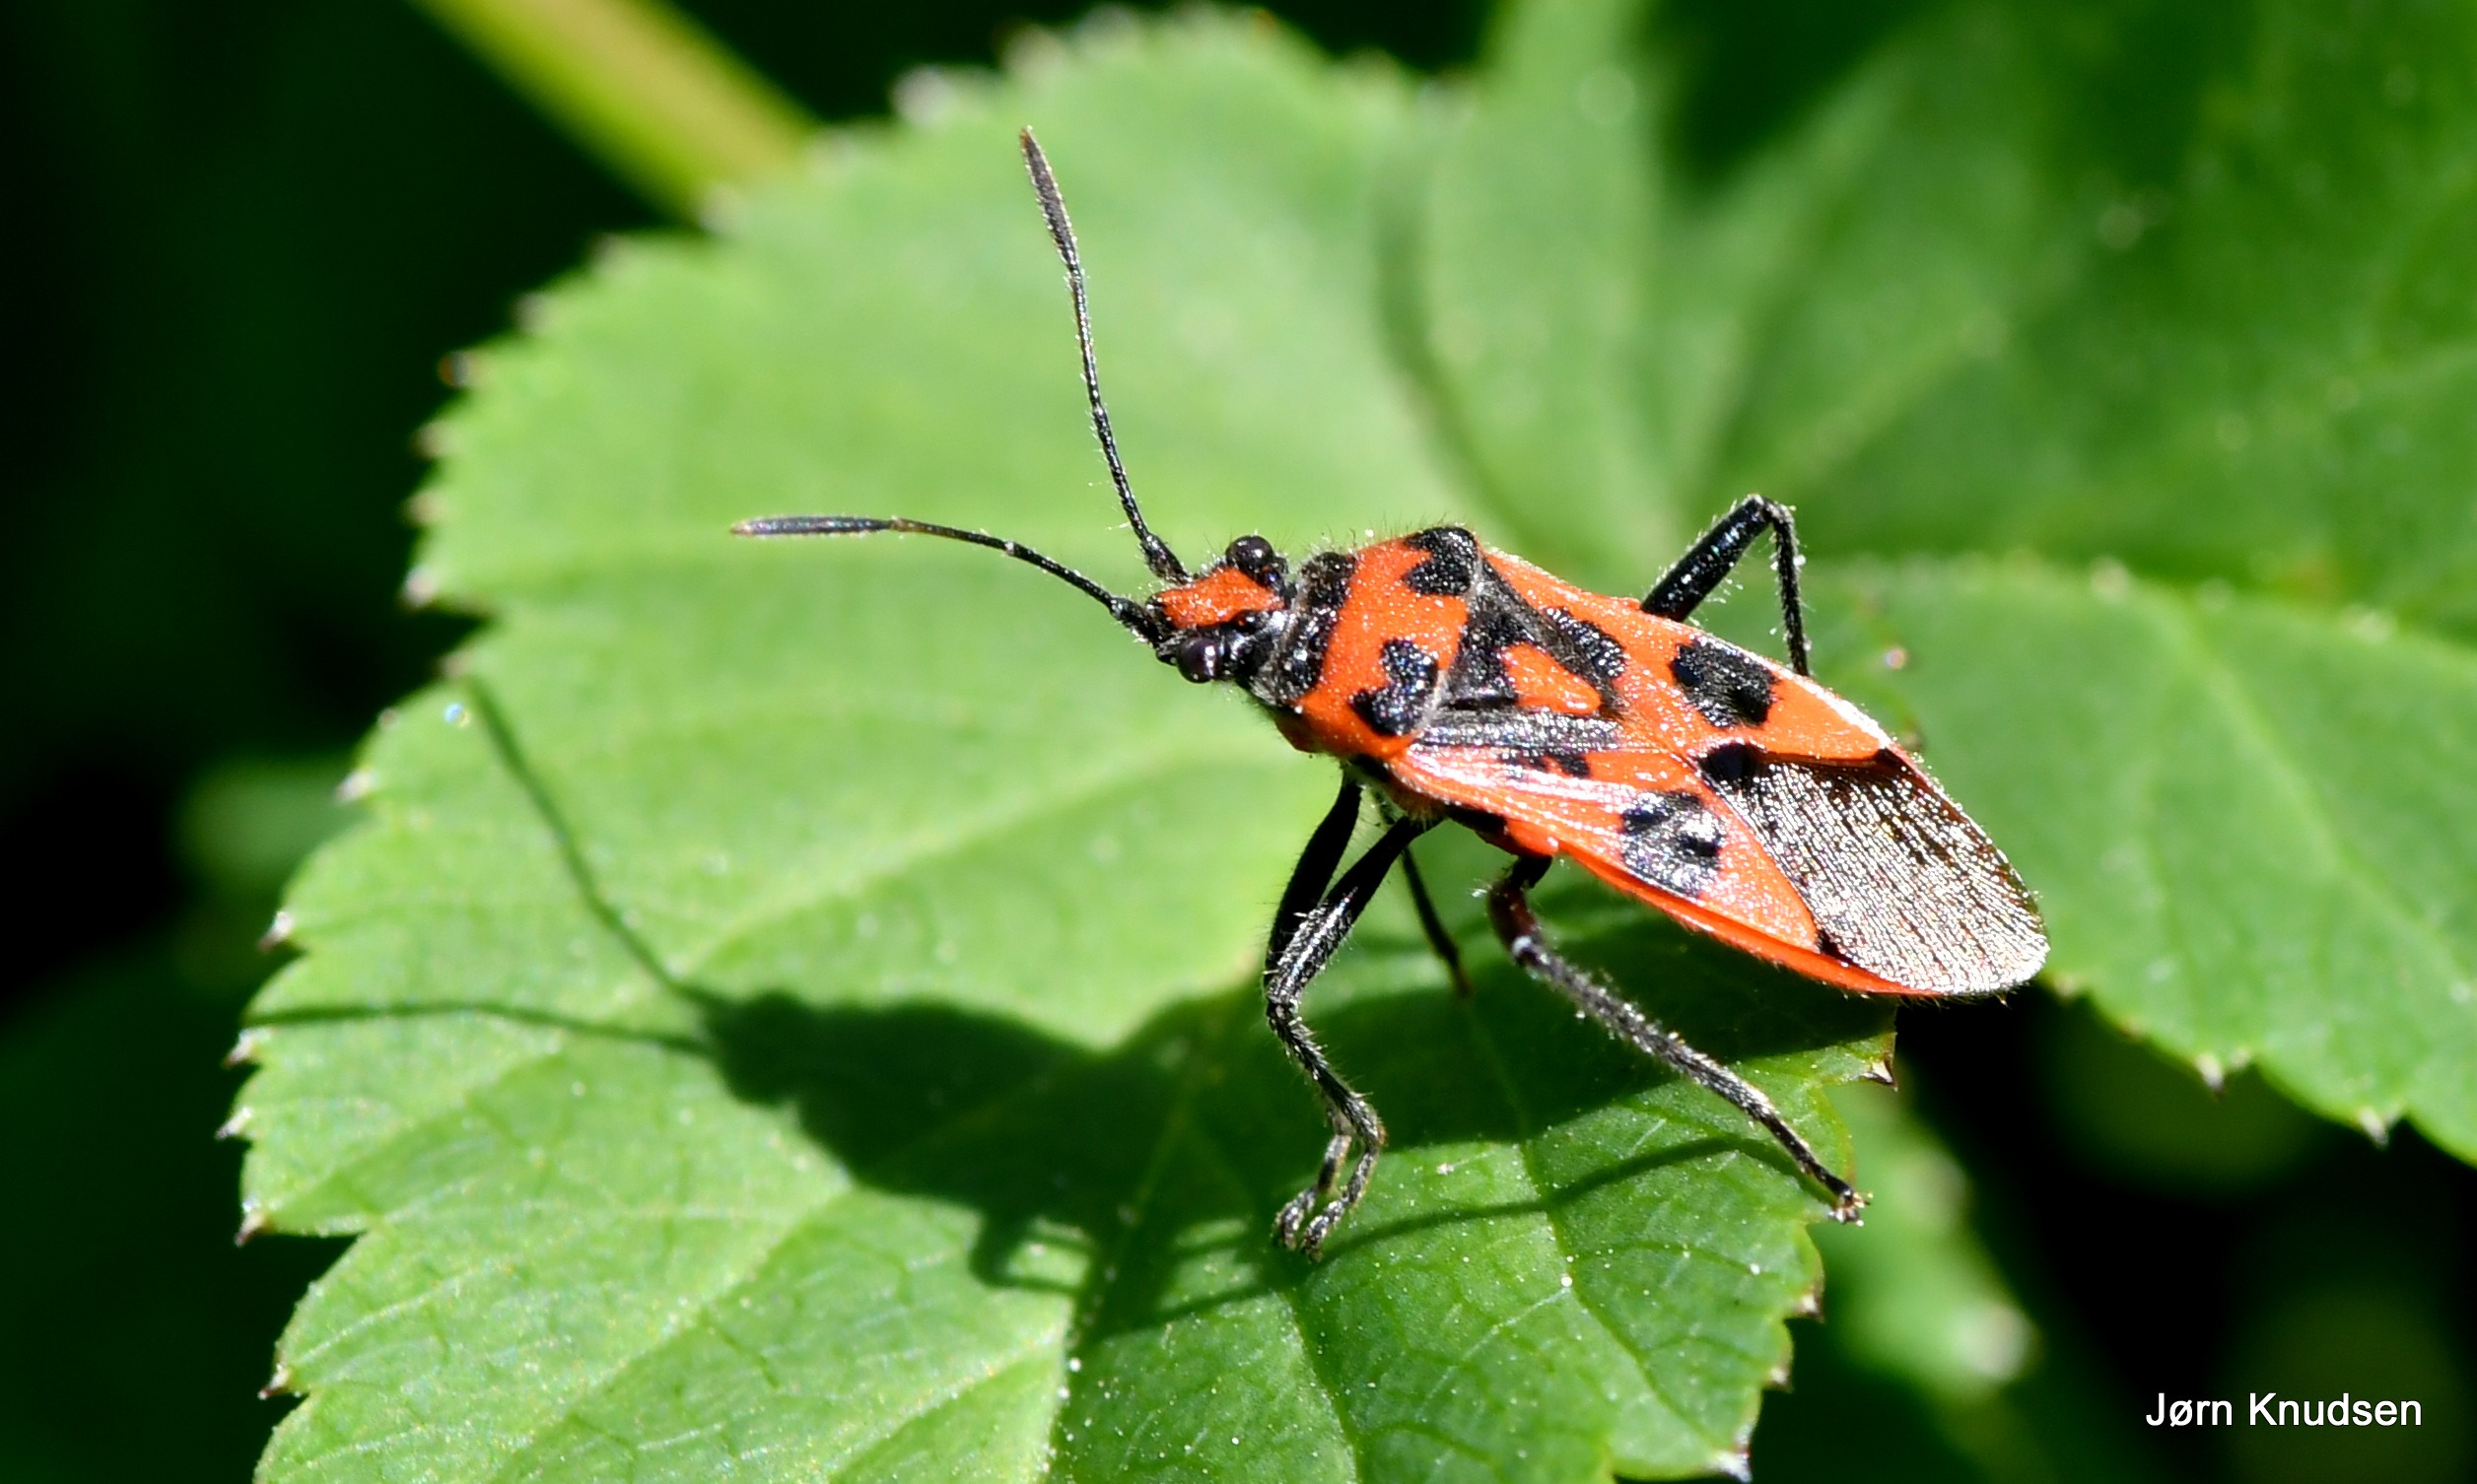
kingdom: Animalia
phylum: Arthropoda
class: Insecta
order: Hemiptera
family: Rhopalidae
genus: Corizus
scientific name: Corizus hyoscyami
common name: Rød kanttæge
